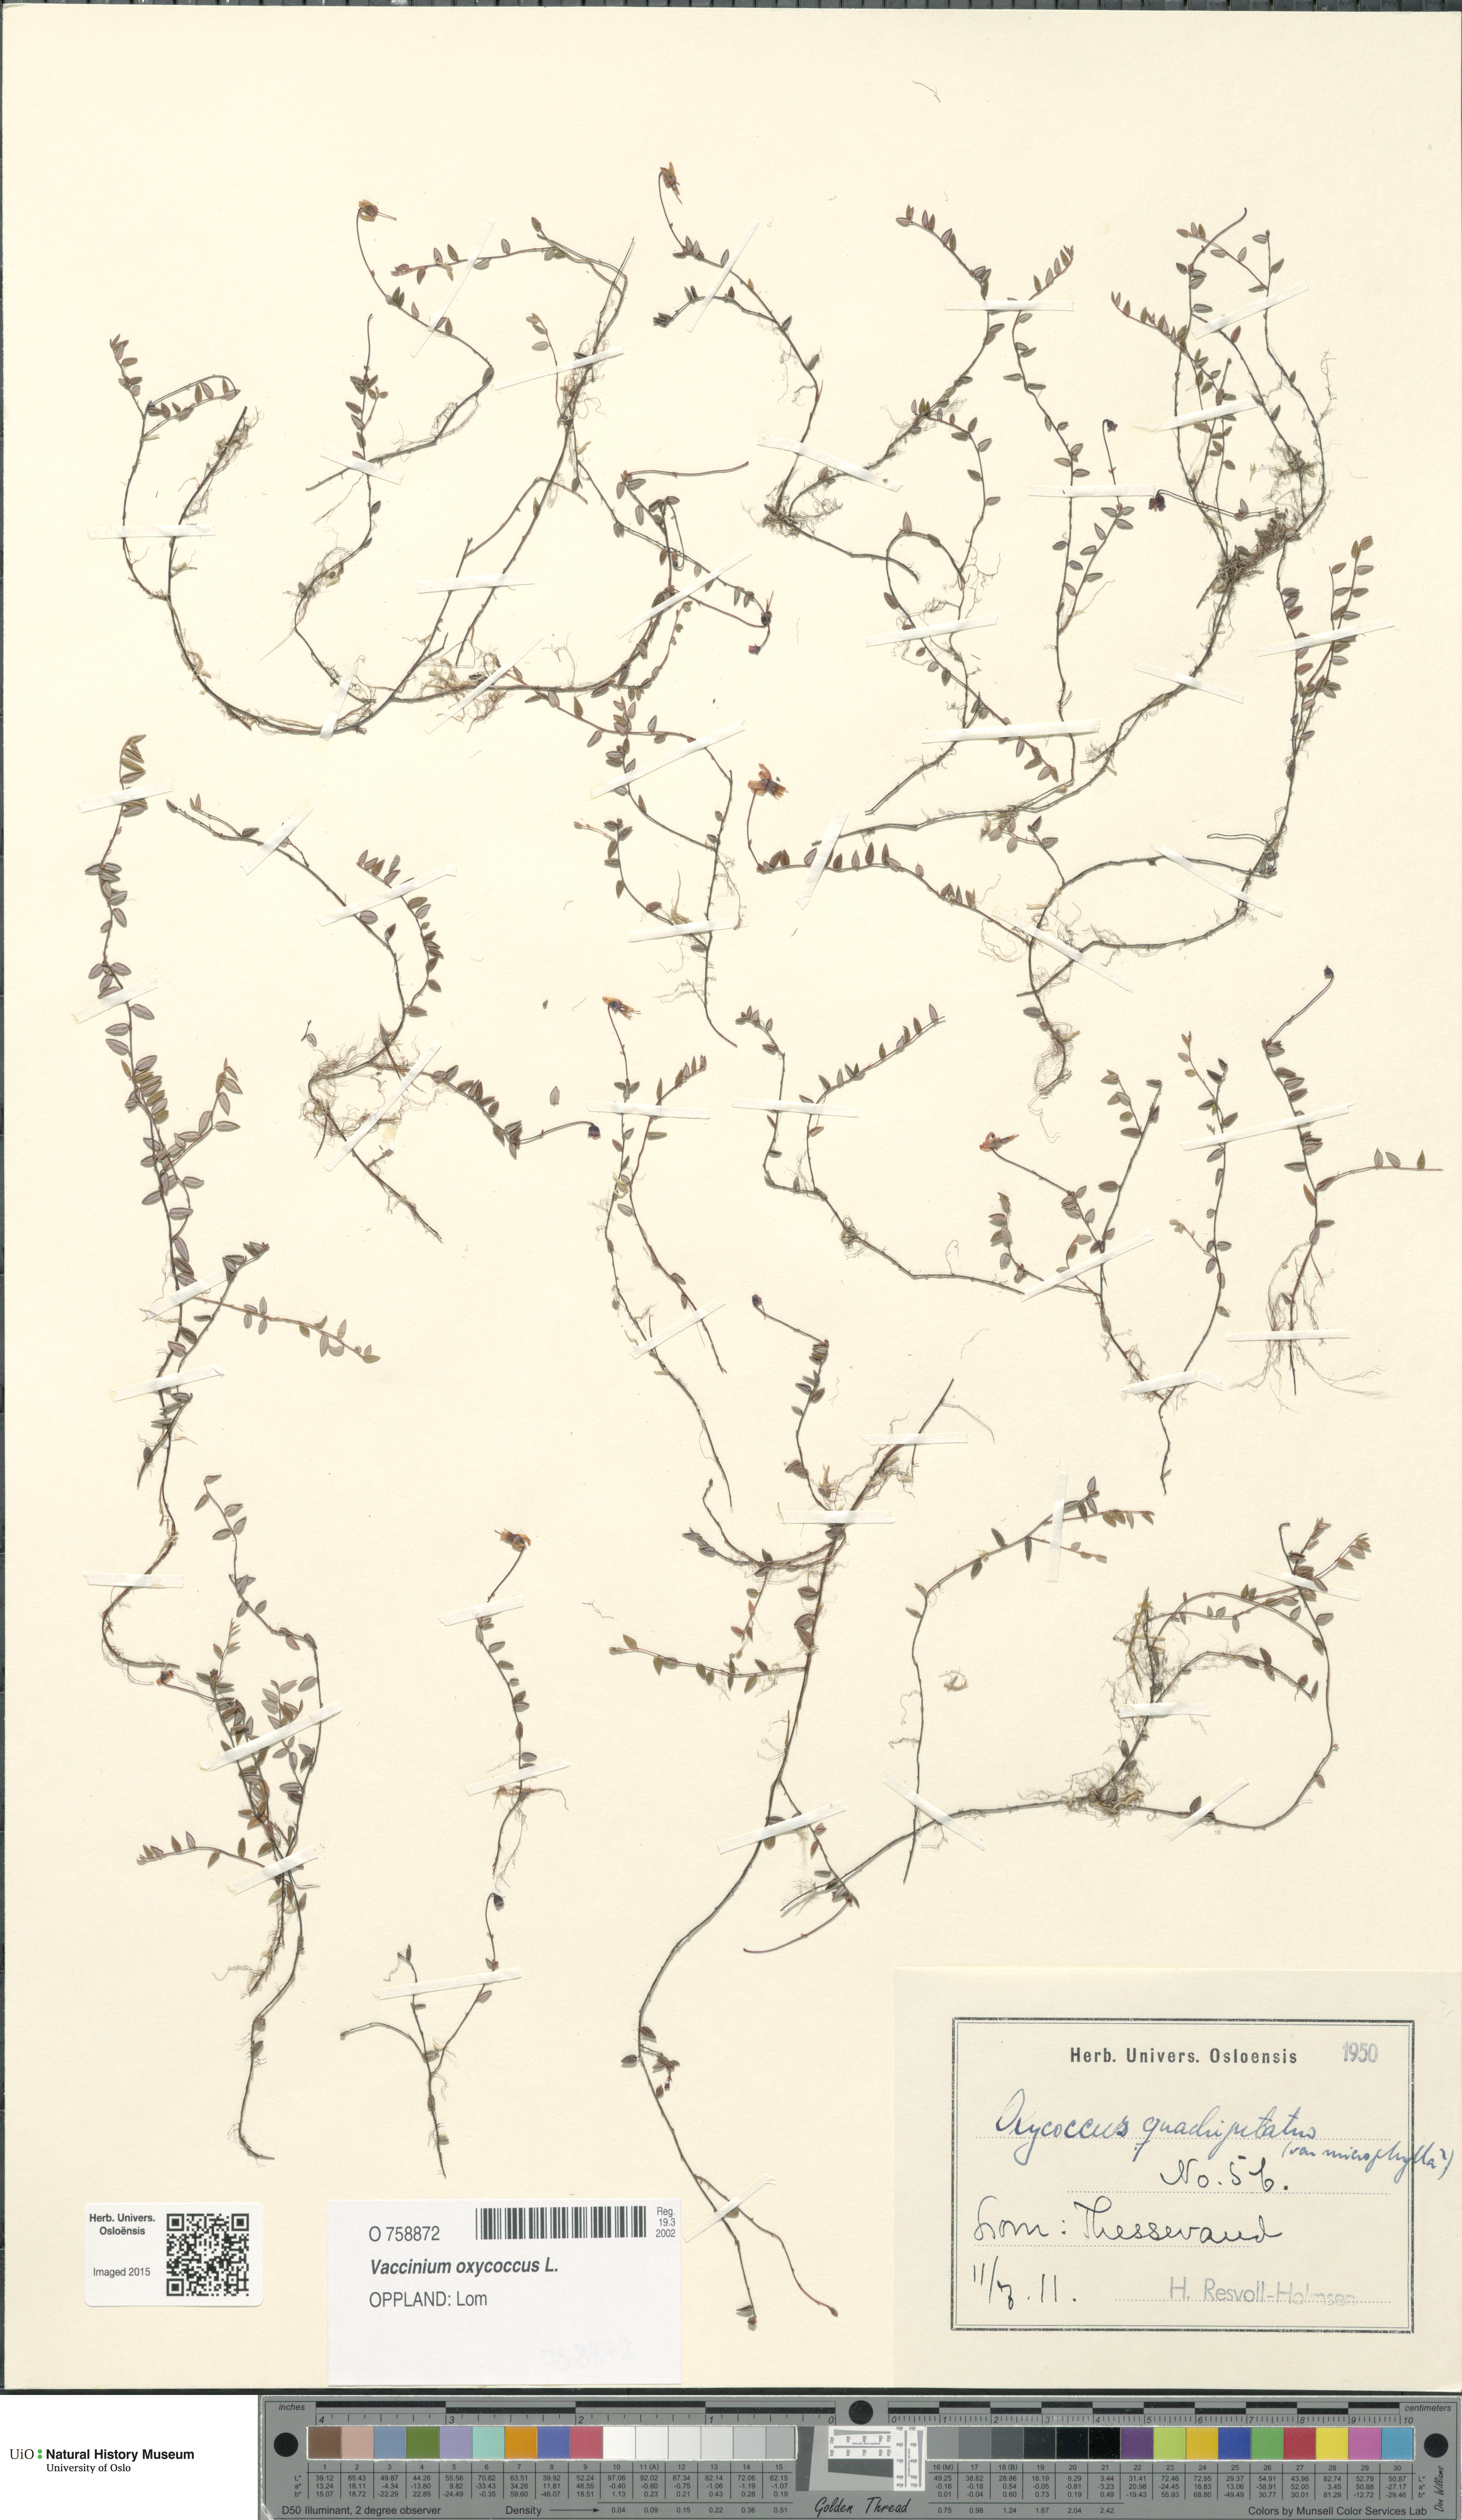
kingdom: Plantae
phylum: Tracheophyta
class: Magnoliopsida
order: Ericales
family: Ericaceae
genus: Vaccinium
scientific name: Vaccinium oxycoccos
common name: Cranberry
